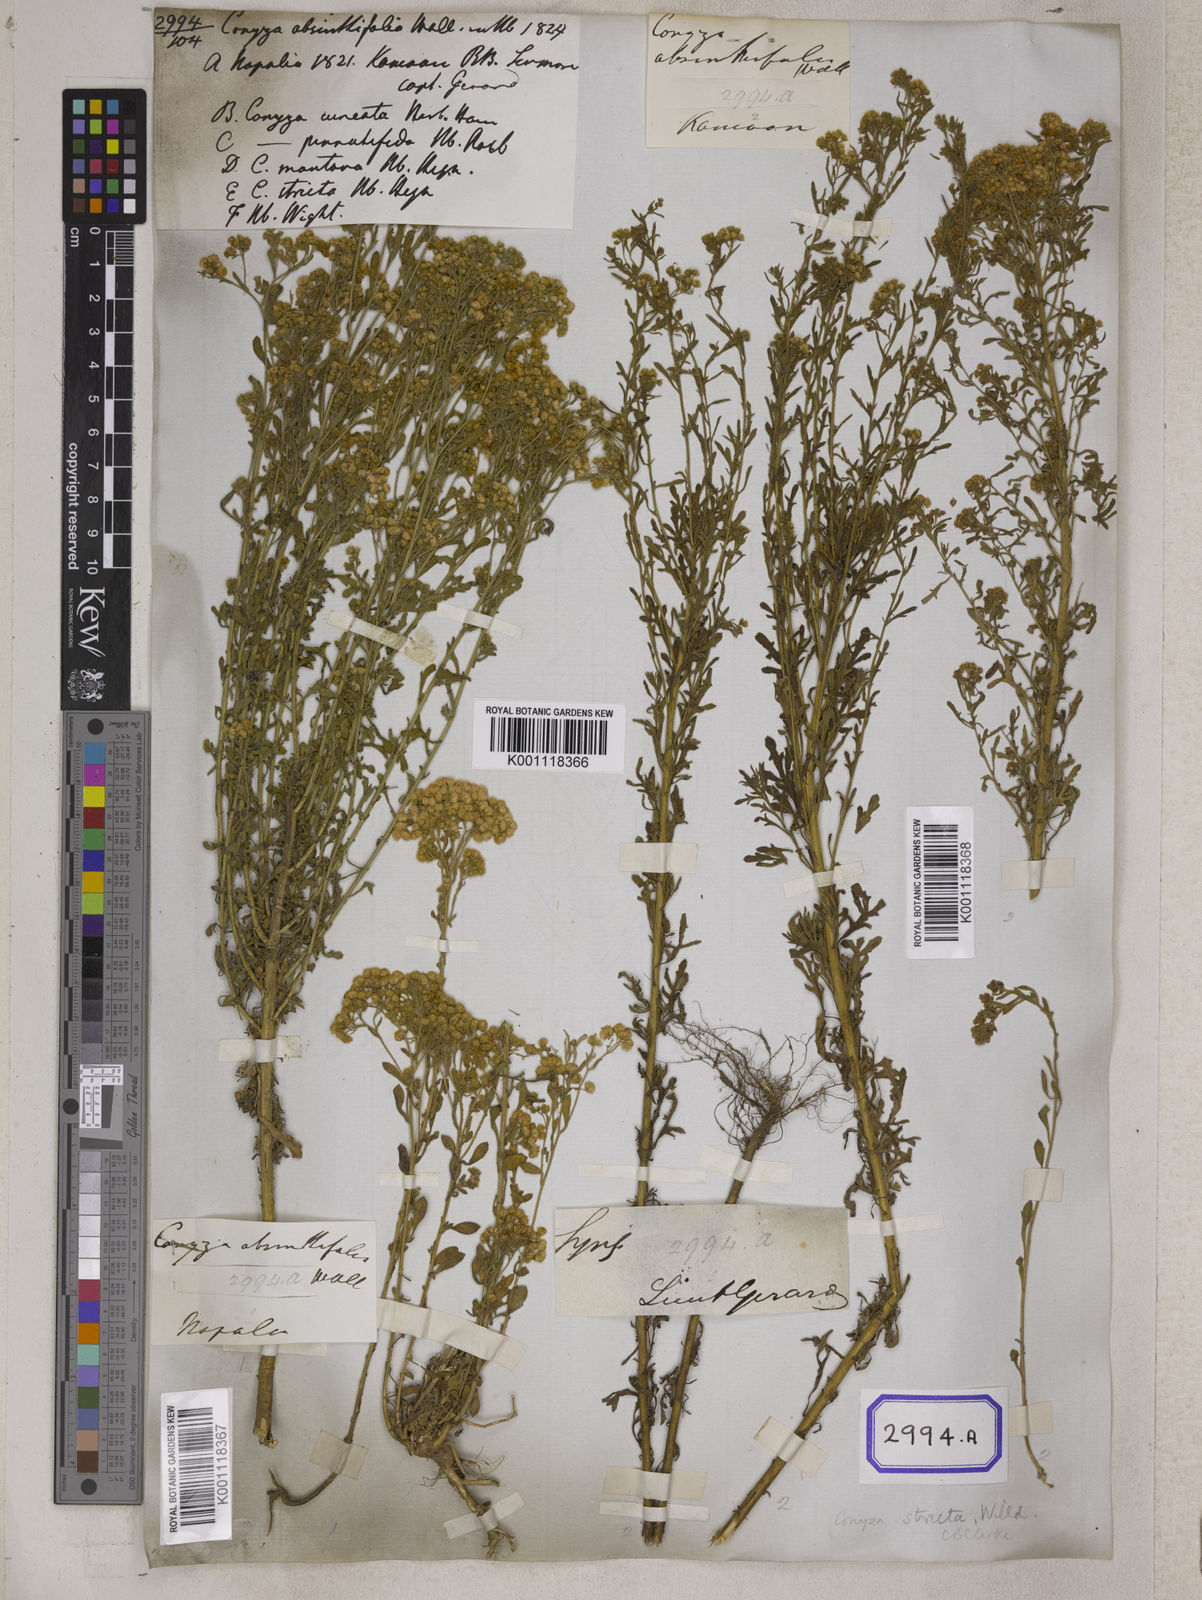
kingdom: Plantae
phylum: Tracheophyta
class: Magnoliopsida
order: Asterales
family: Asteraceae
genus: Nidorella
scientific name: Nidorella triloba
